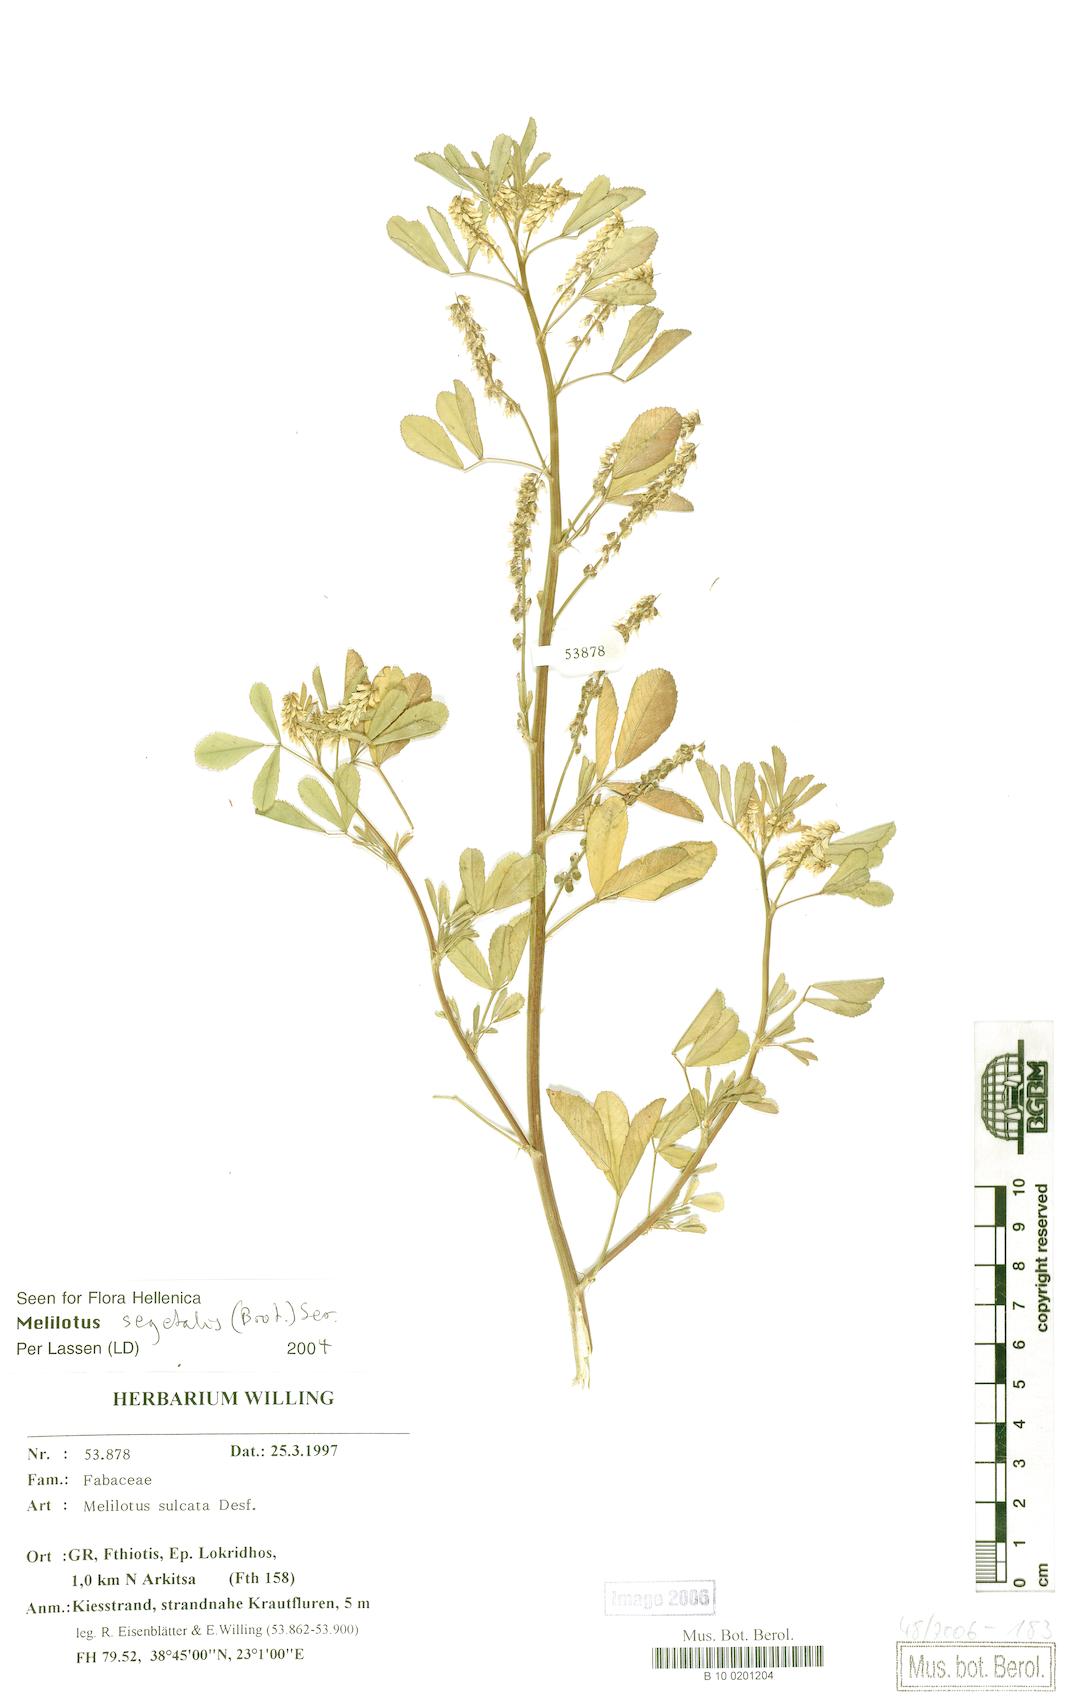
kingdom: Plantae
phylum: Tracheophyta
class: Magnoliopsida
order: Fabales
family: Fabaceae
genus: Melilotus
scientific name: Melilotus sulcatus
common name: Furrowed melilot
